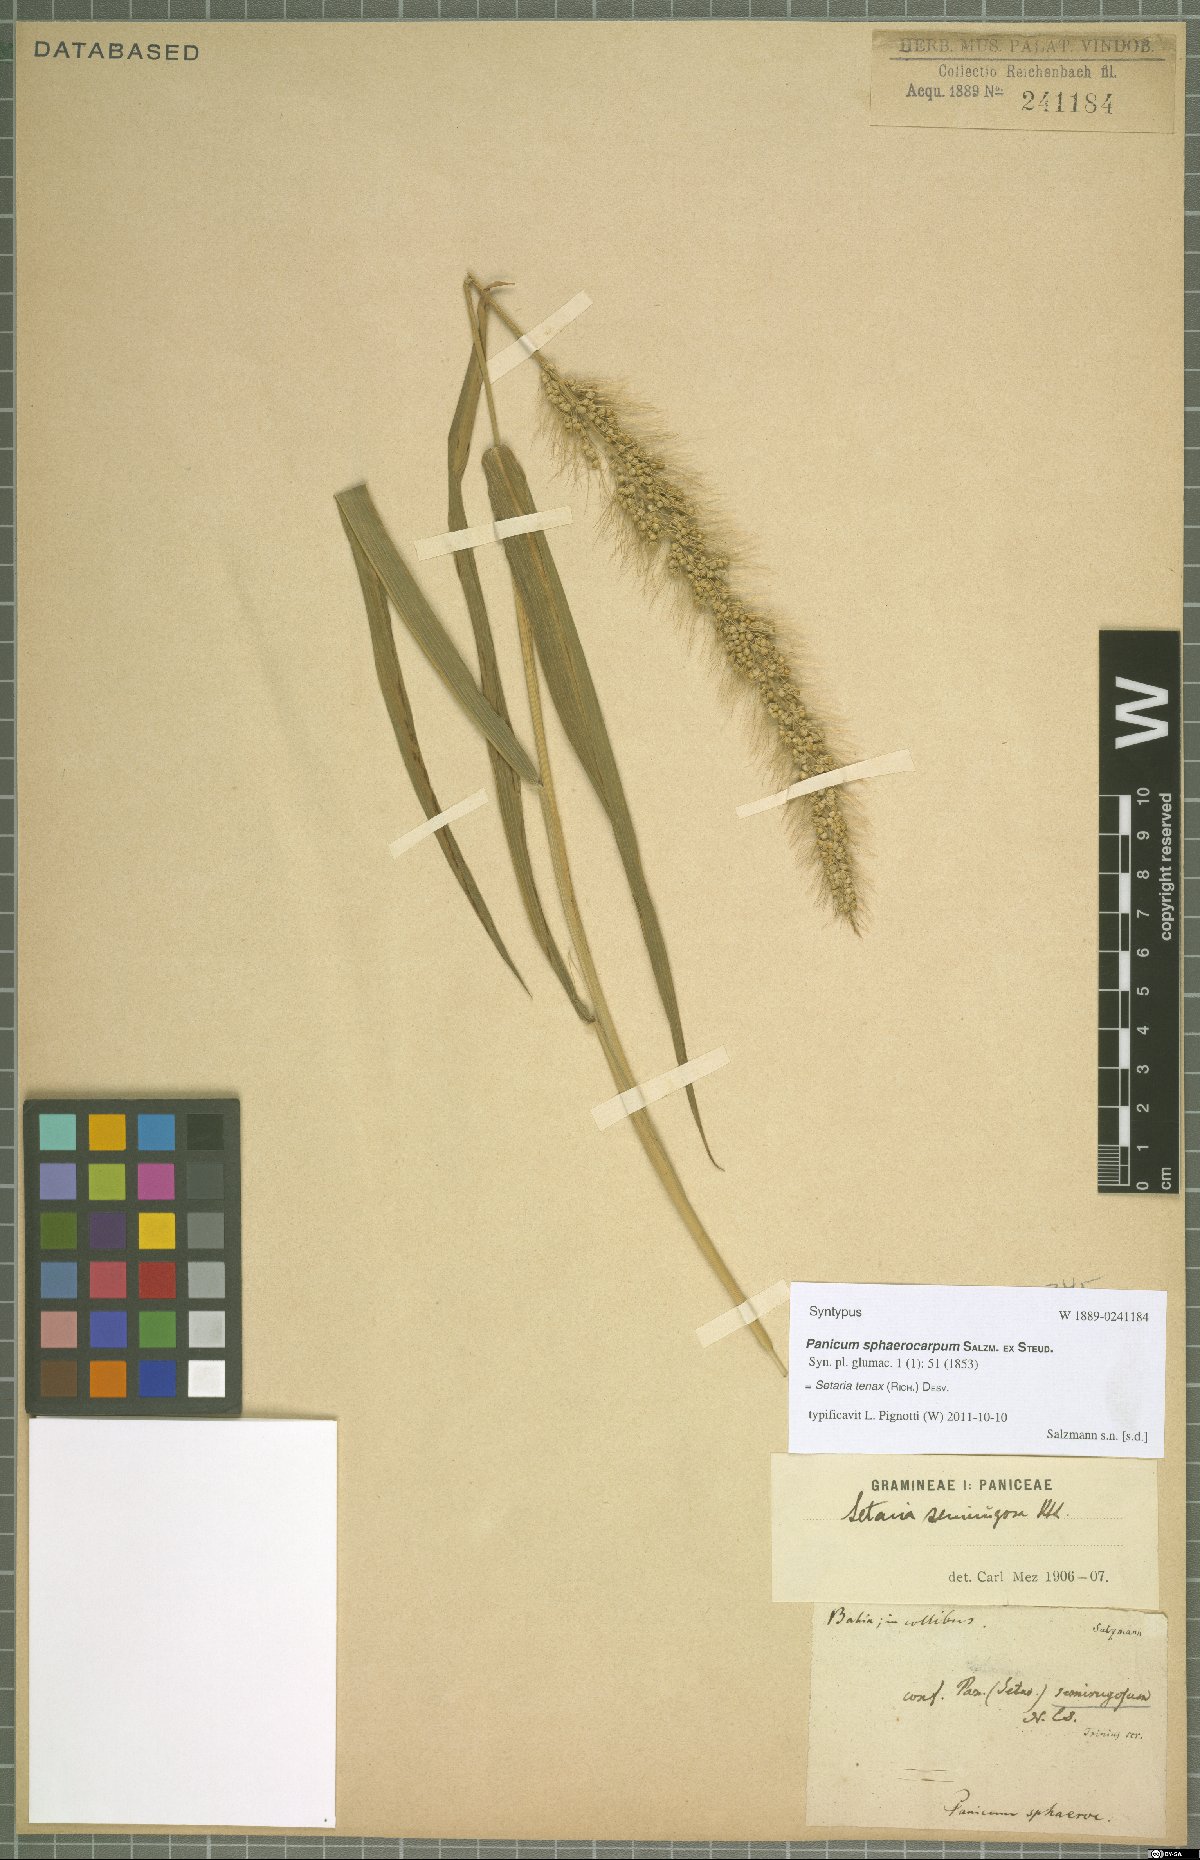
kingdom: Plantae
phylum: Tracheophyta
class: Liliopsida
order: Poales
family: Poaceae
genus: Setaria
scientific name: Setaria tenax
